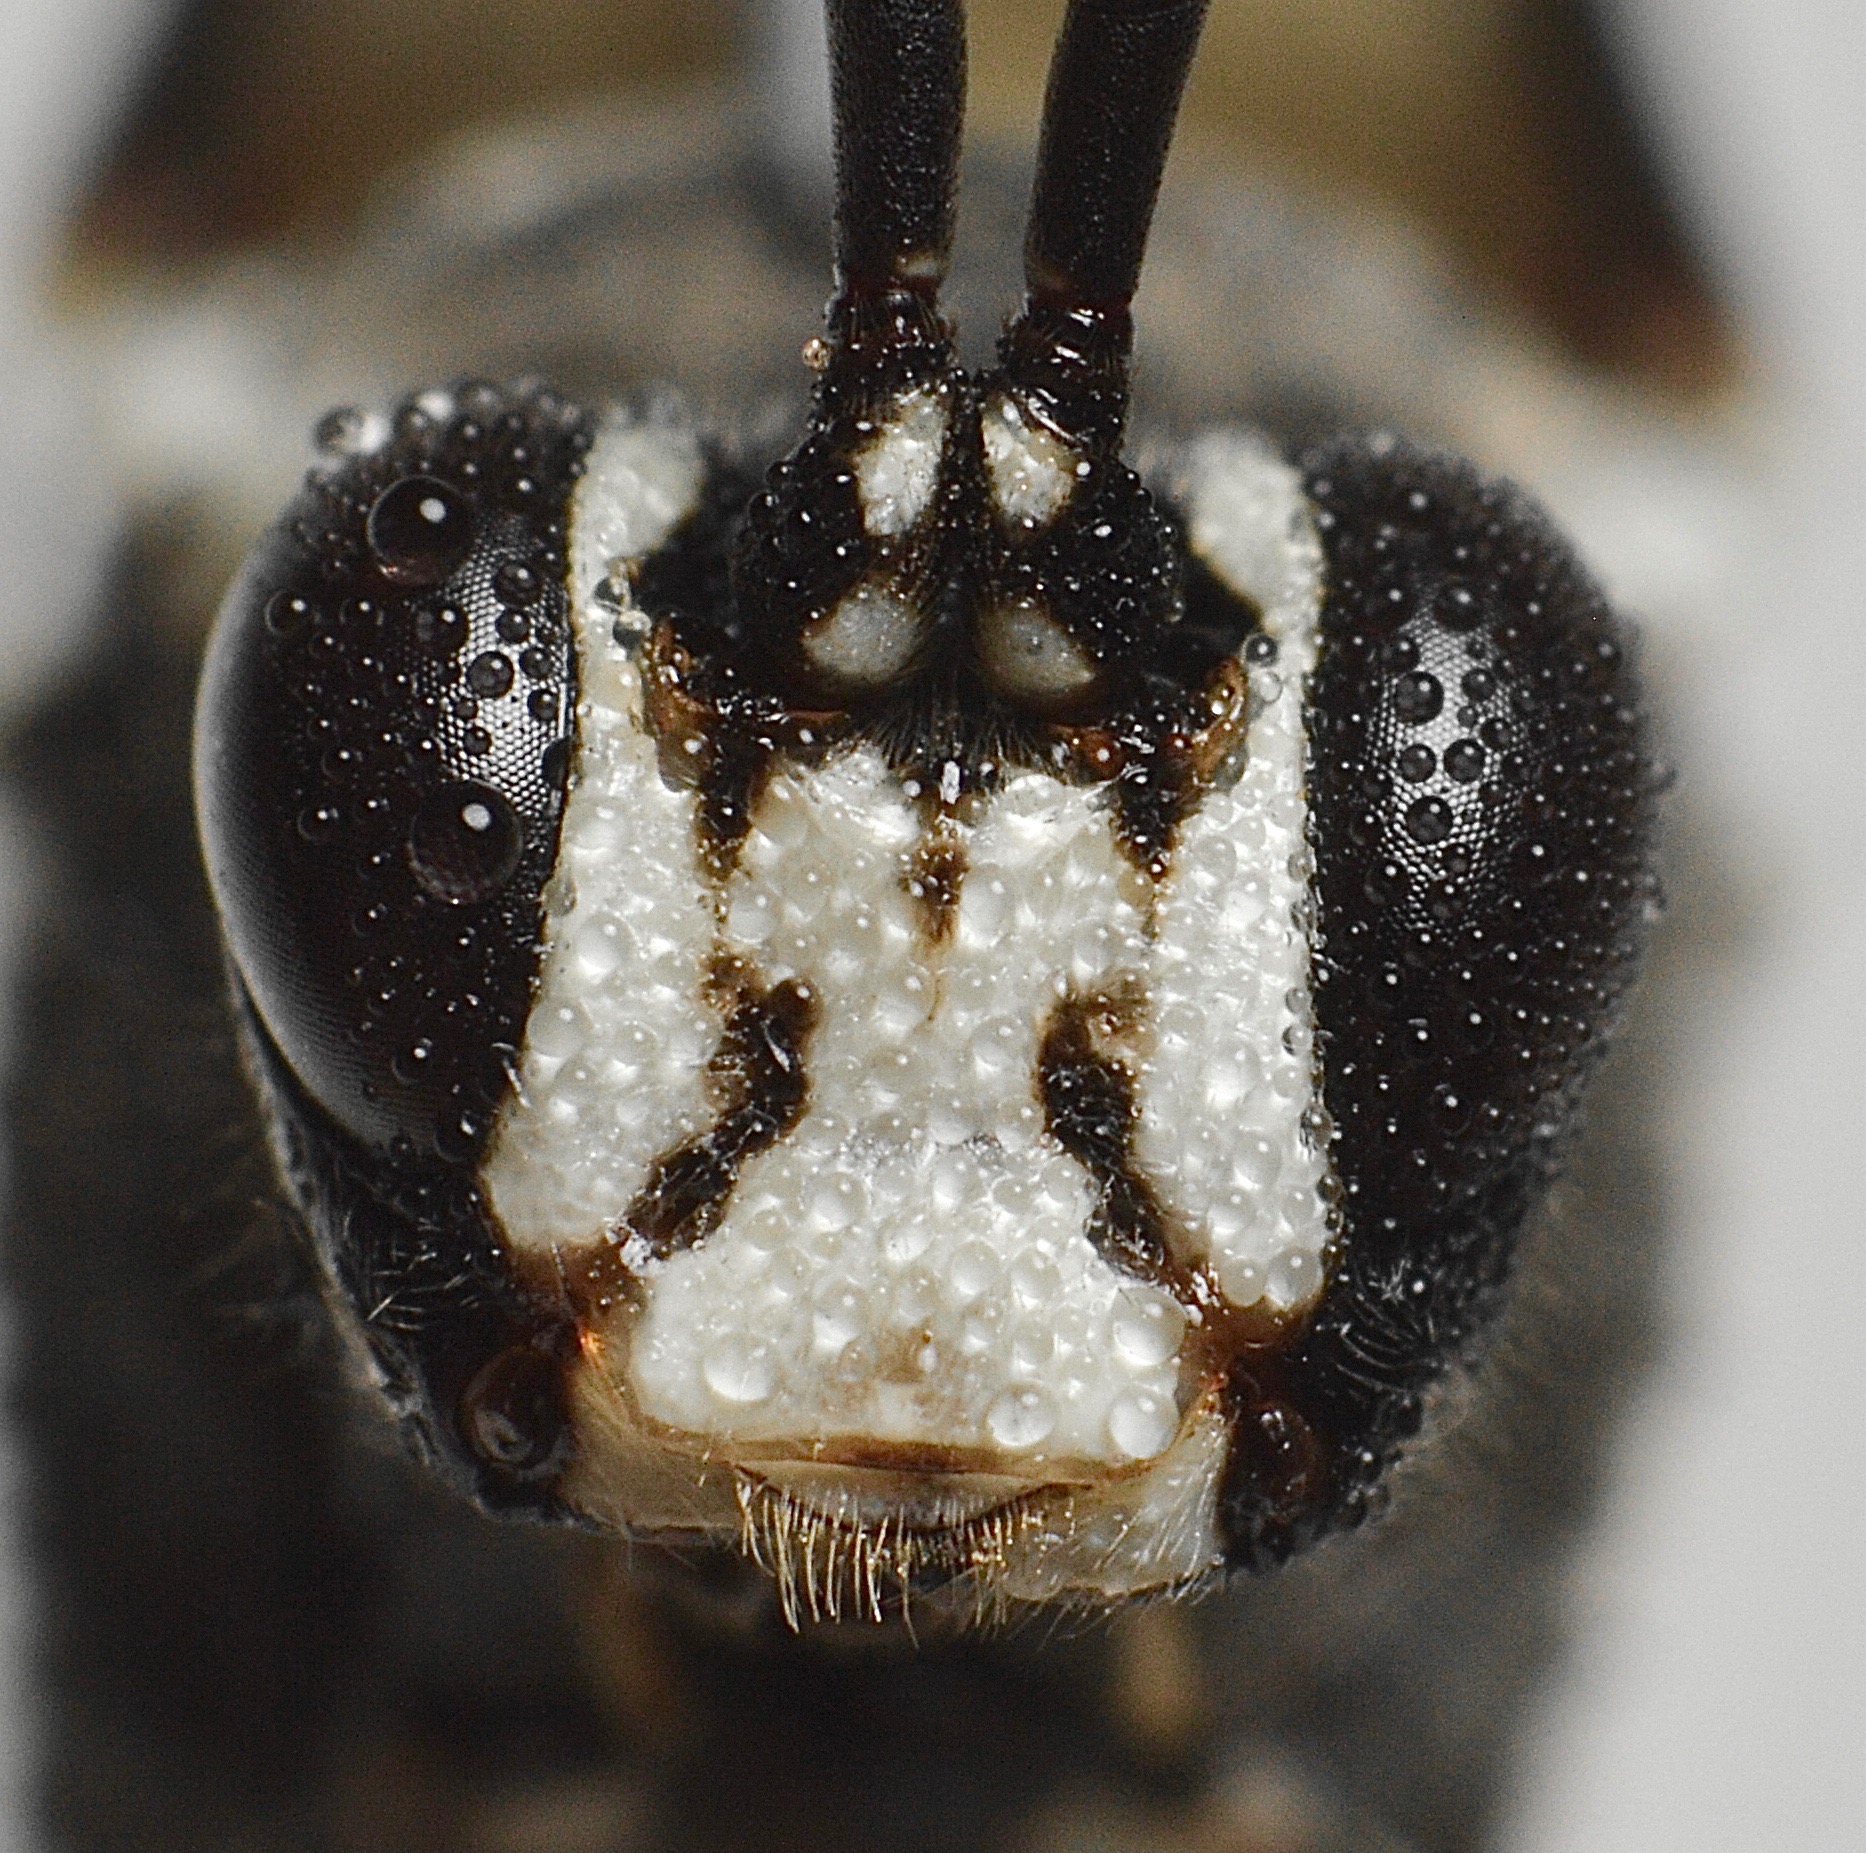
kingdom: Animalia
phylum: Arthropoda
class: Insecta
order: Hymenoptera
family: Ichneumonidae
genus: Amblyjoppa
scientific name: Amblyjoppa proteus
